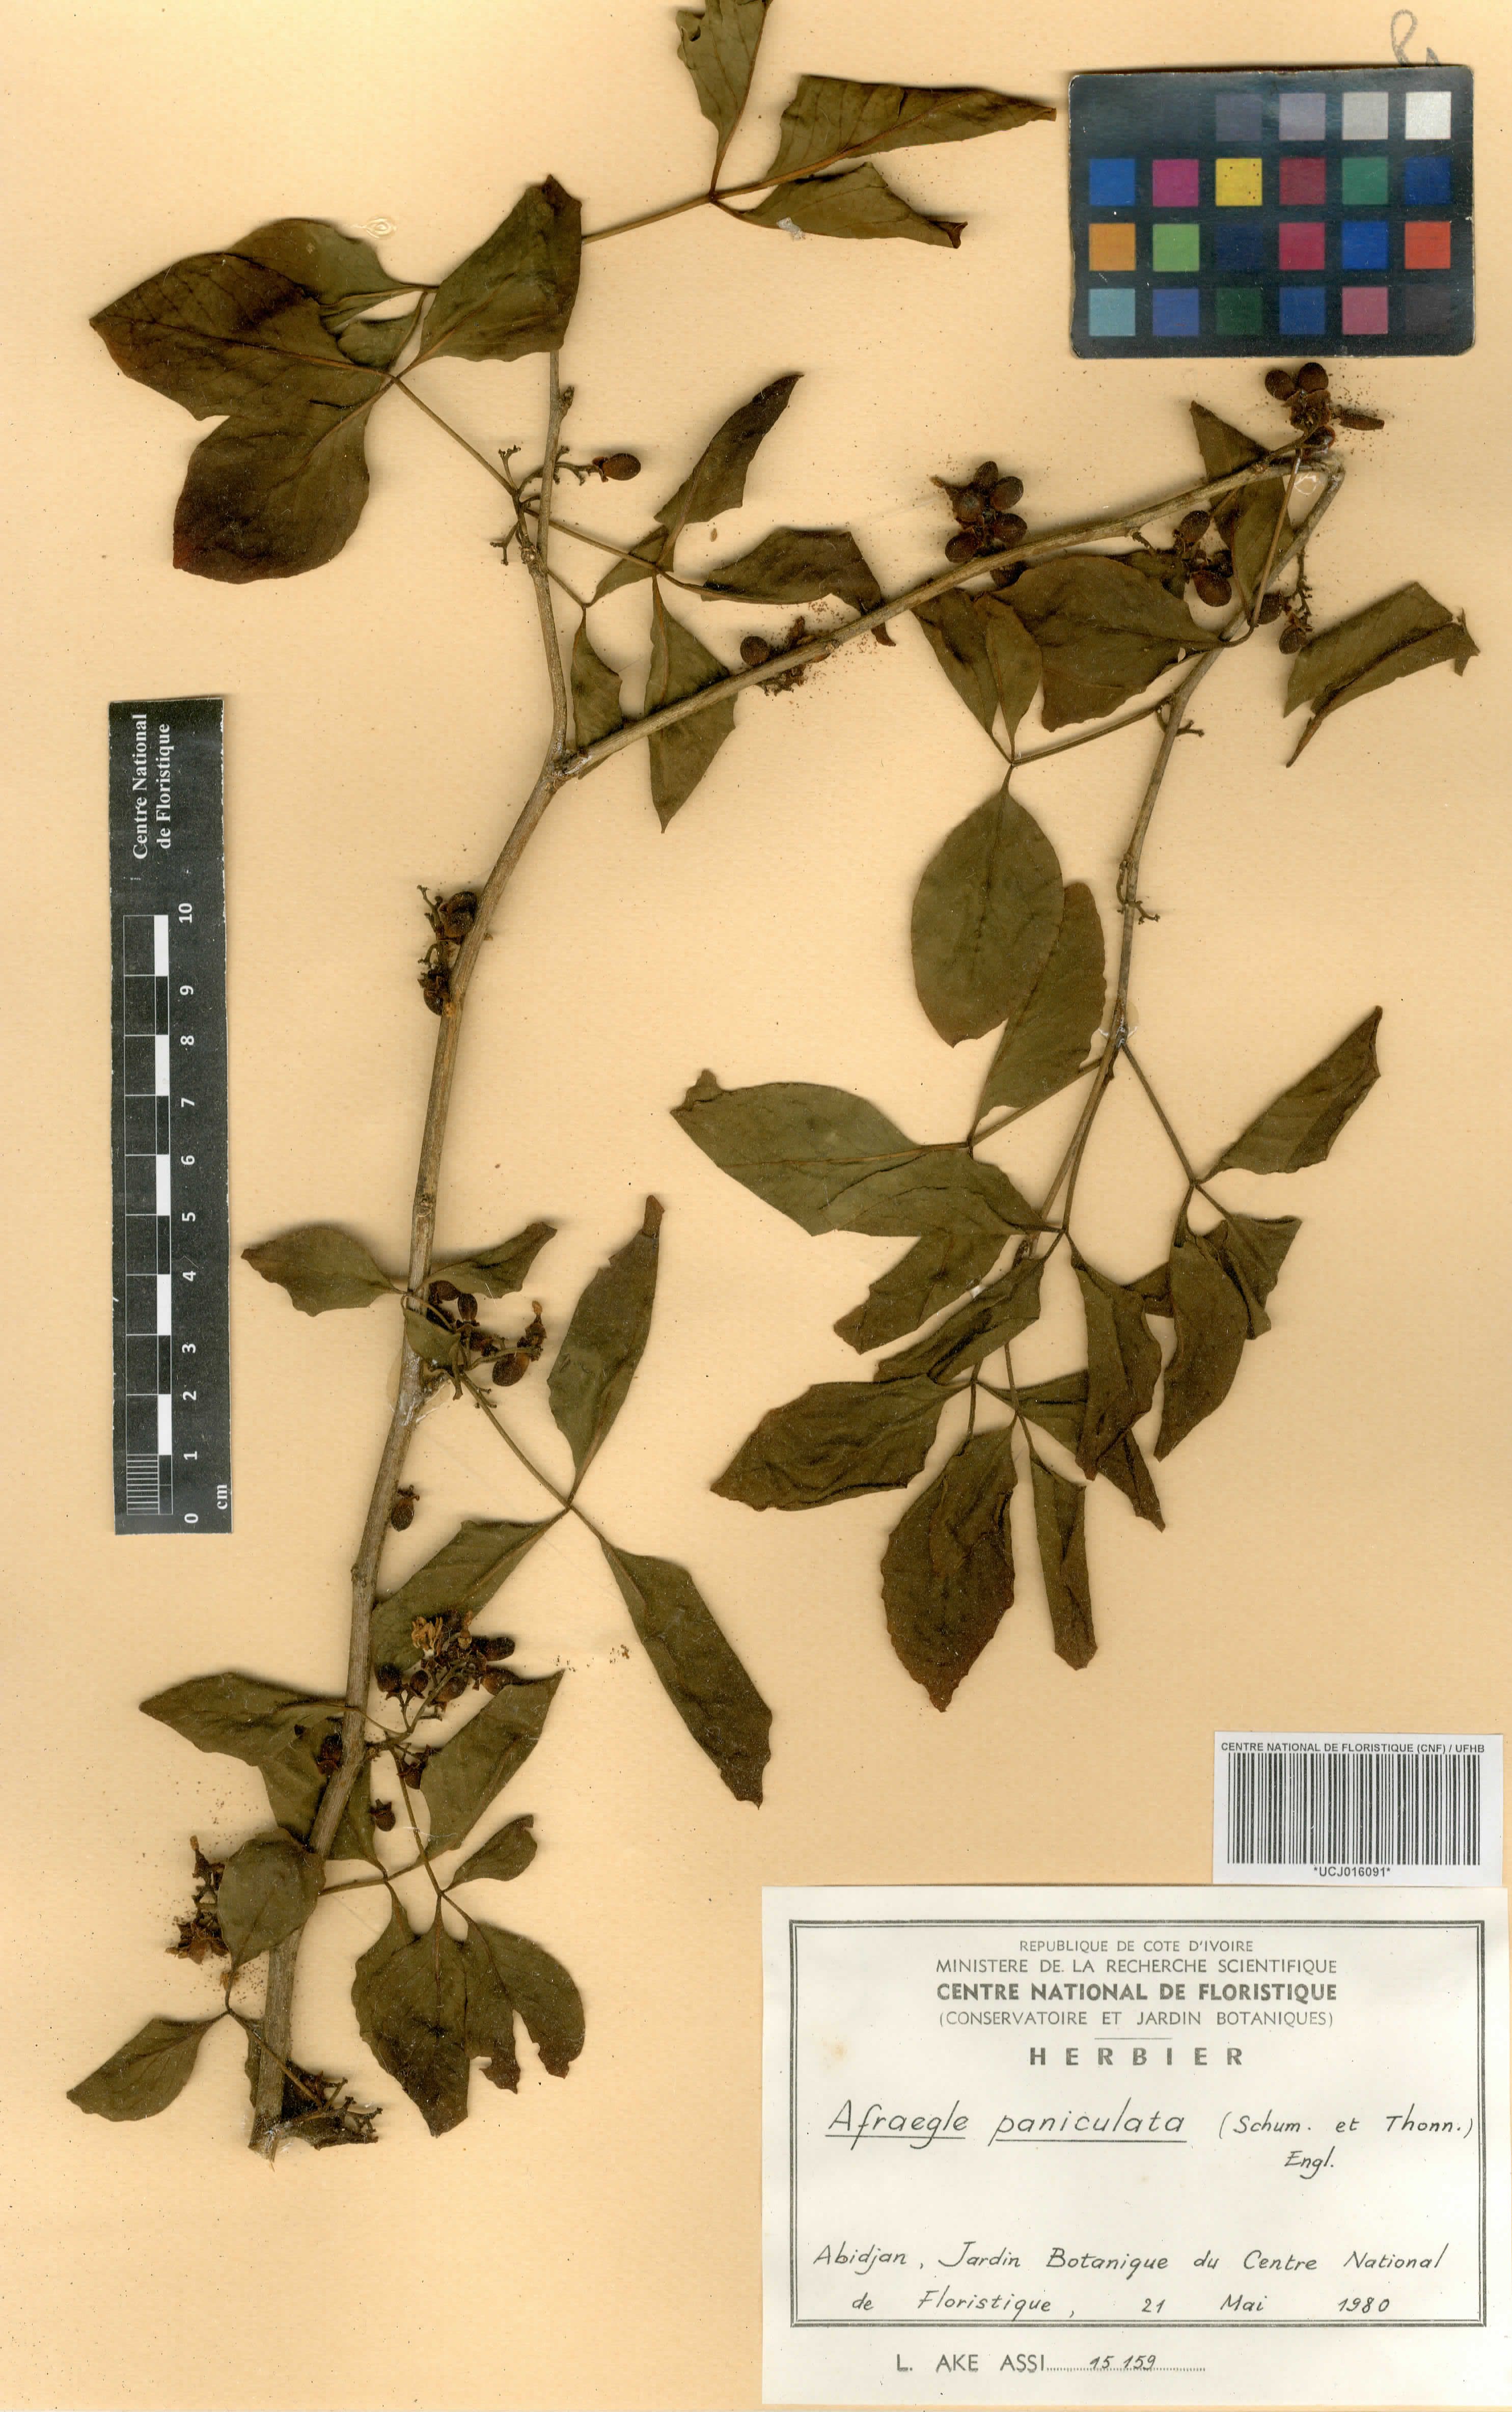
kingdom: Plantae
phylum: Tracheophyta
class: Magnoliopsida
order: Sapindales
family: Rutaceae
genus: Afraegle
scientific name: Afraegle paniculata
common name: Guin-guin
